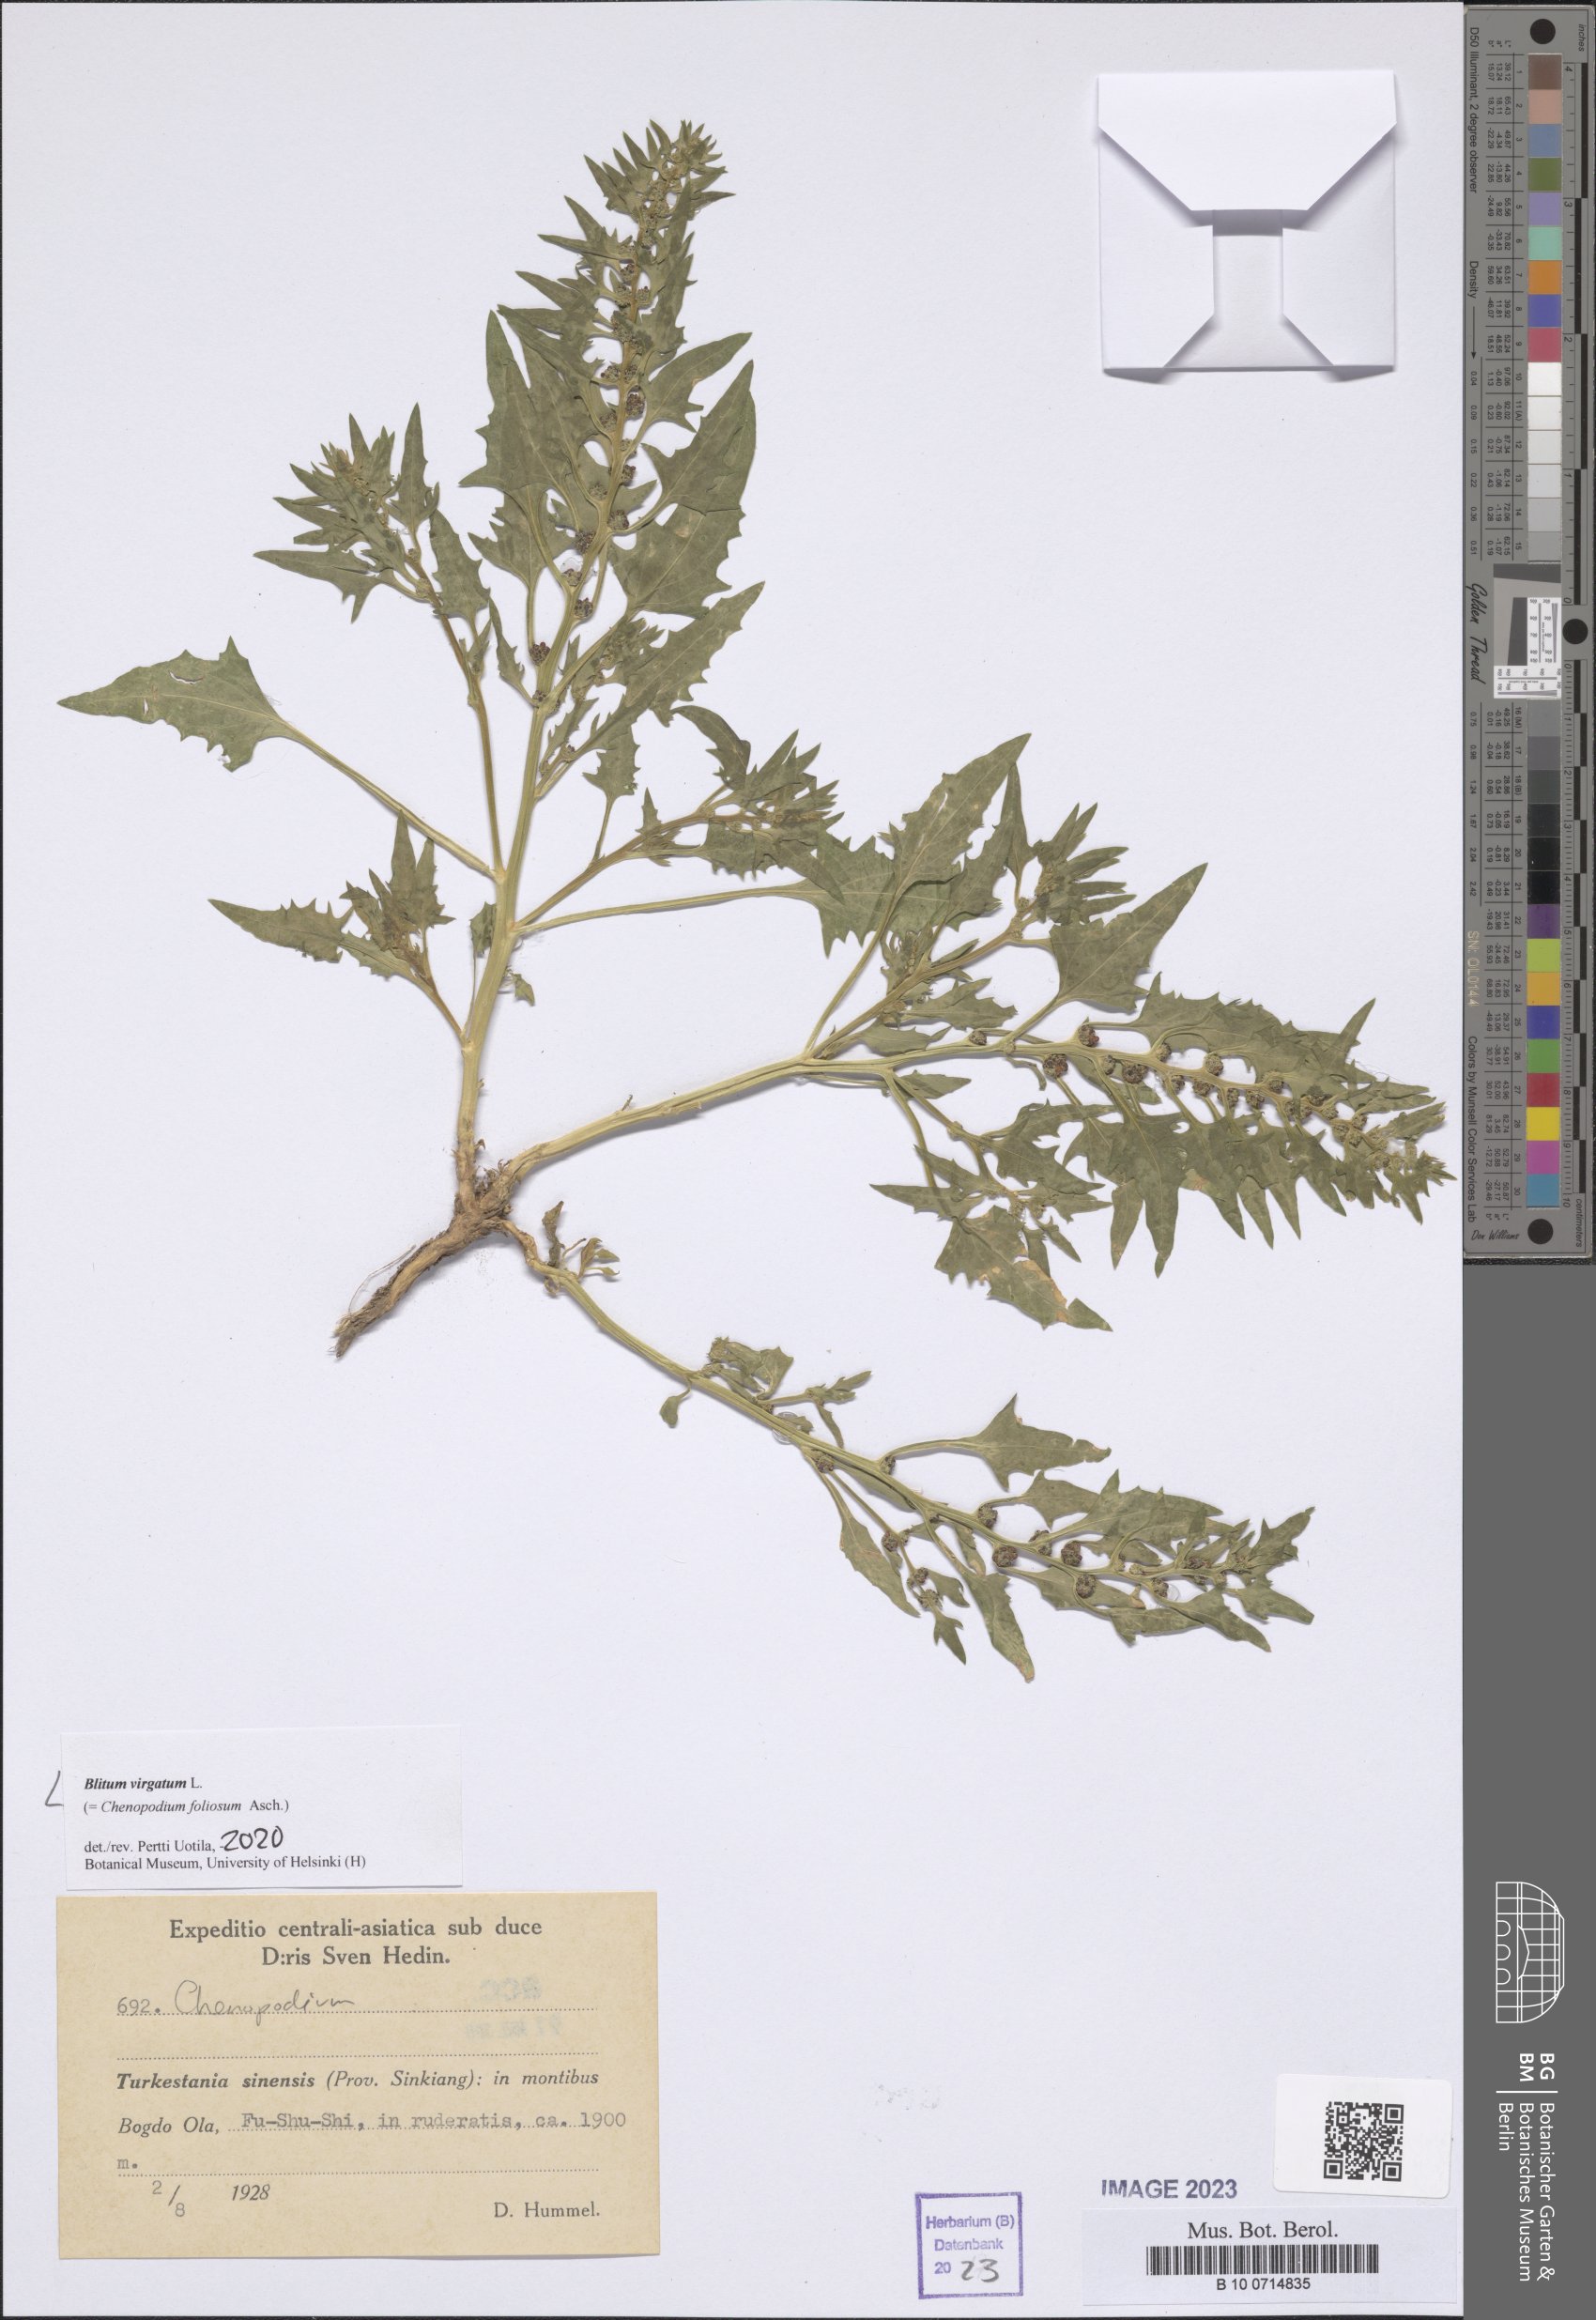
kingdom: Plantae
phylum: Tracheophyta
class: Magnoliopsida
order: Caryophyllales
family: Amaranthaceae
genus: Blitum
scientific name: Blitum virgatum
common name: Strawberry goosefoot
